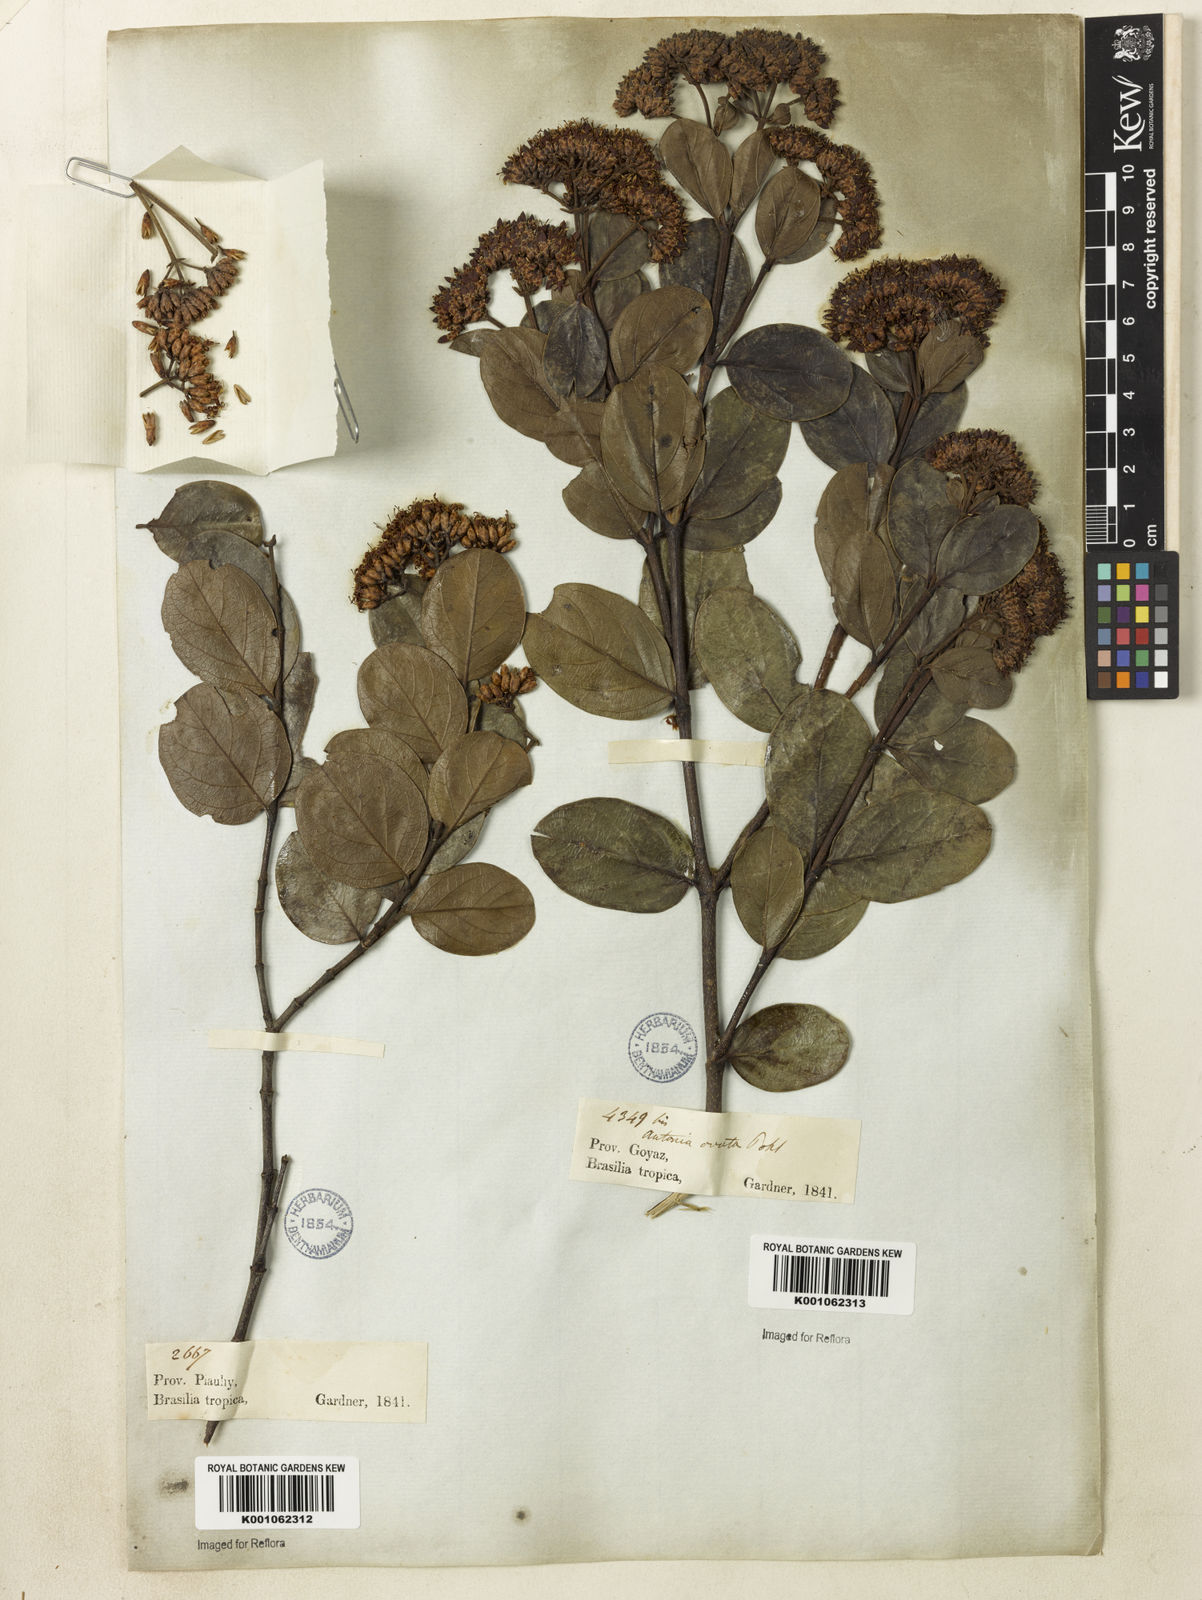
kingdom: Plantae
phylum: Tracheophyta
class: Magnoliopsida
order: Gentianales
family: Loganiaceae
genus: Antonia
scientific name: Antonia ovata
